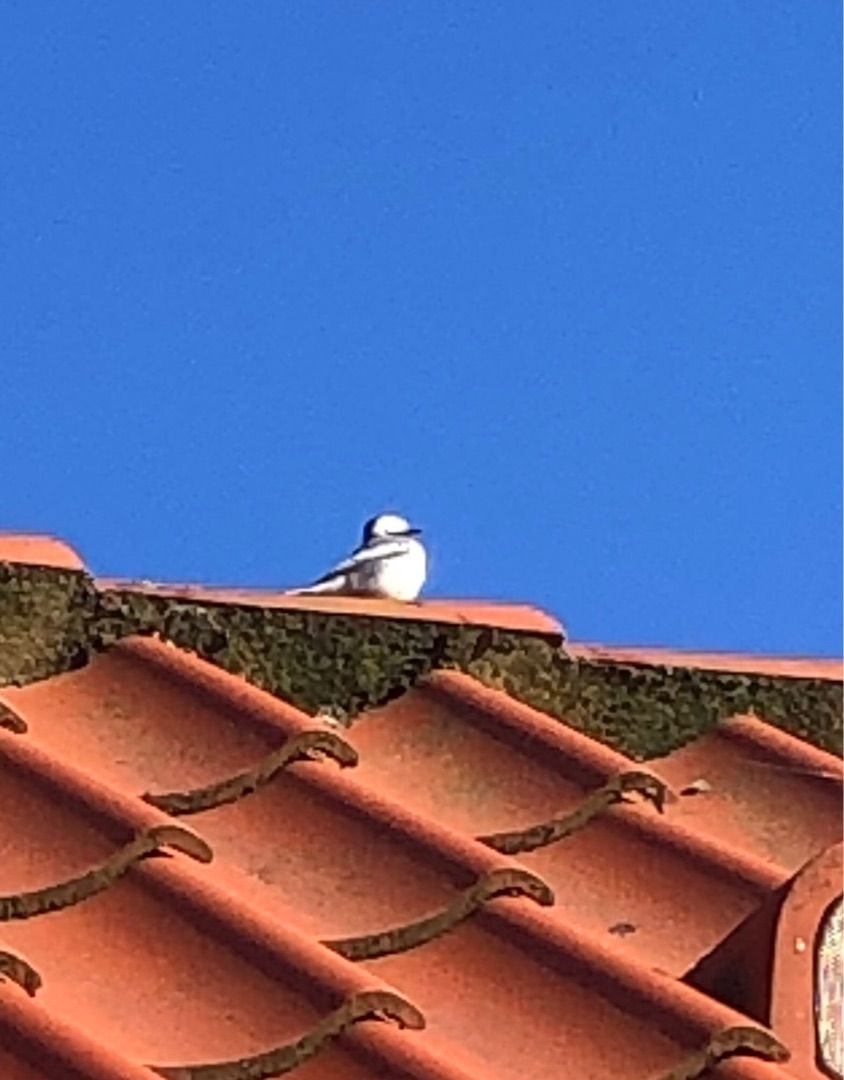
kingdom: Animalia
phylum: Chordata
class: Aves
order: Passeriformes
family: Motacillidae
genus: Motacilla
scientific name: Motacilla alba
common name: Hvid vipstjert
